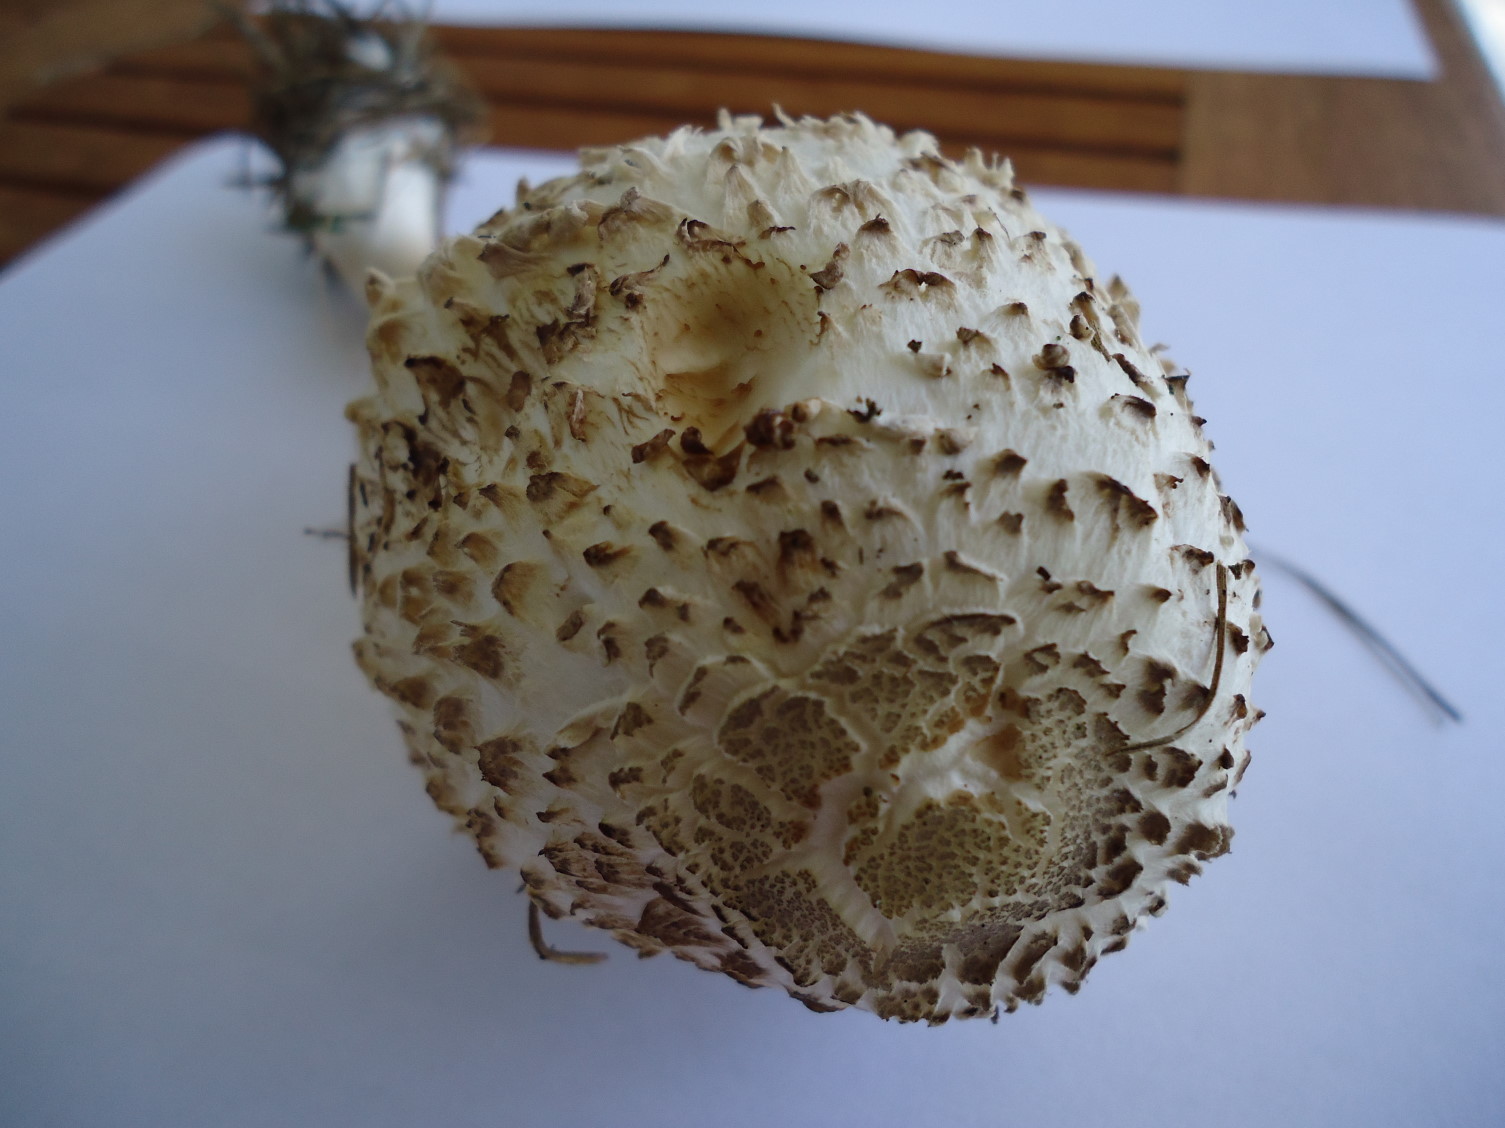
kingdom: Fungi
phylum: Basidiomycota
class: Agaricomycetes
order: Agaricales
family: Agaricaceae
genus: Leucoagaricus
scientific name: Leucoagaricus nympharum
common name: gran-silkehat
